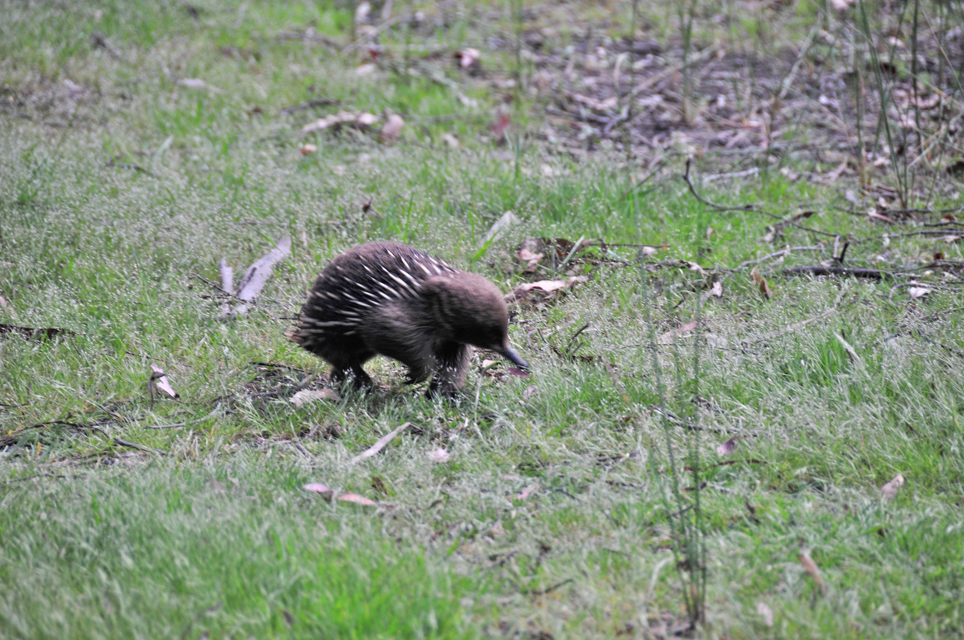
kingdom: Animalia
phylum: Chordata
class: Mammalia
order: Monotremata
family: Tachyglossidae
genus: Tachyglossus
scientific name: Tachyglossus aculeatus
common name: Short-beaked echidna
